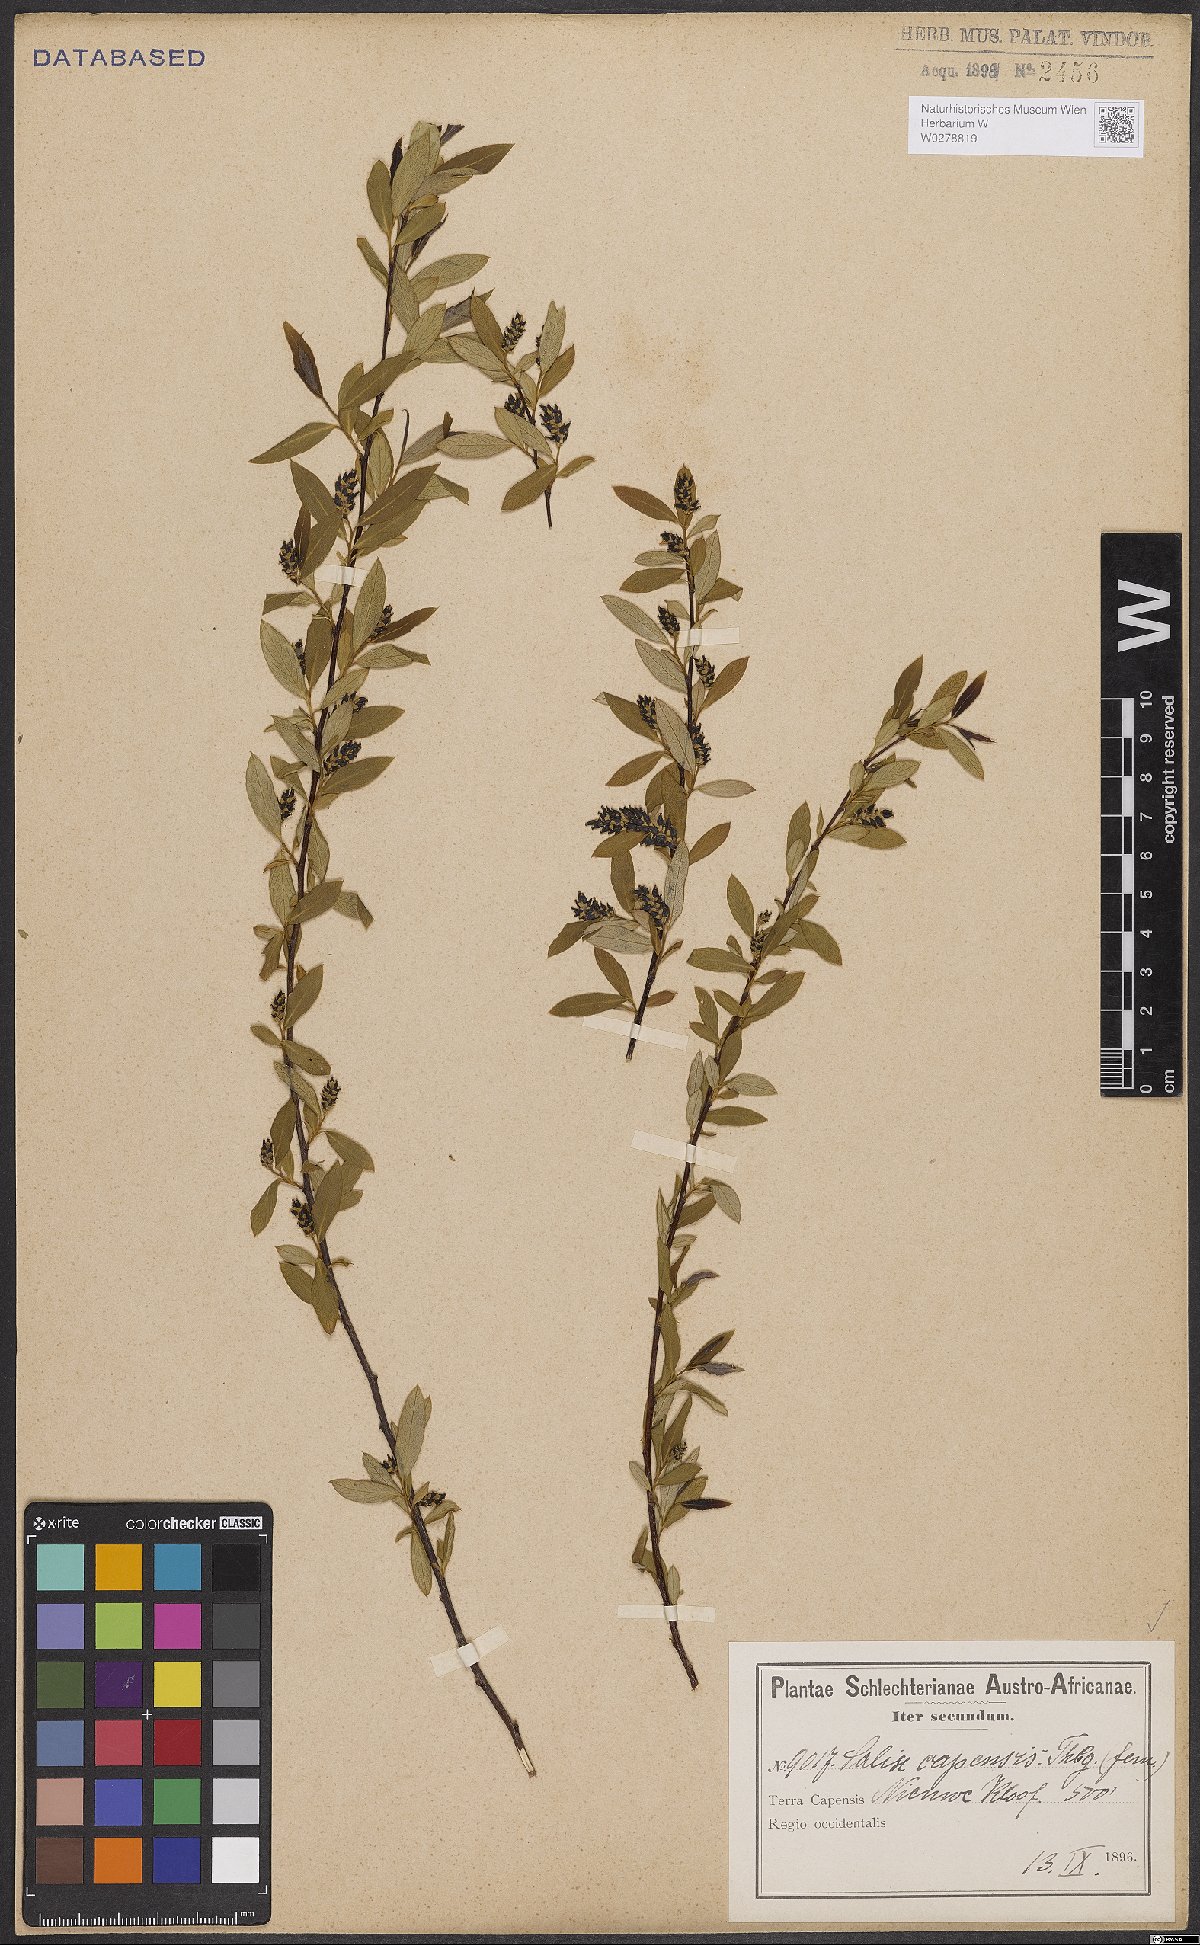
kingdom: Plantae
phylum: Tracheophyta
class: Magnoliopsida
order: Malpighiales
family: Salicaceae
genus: Salix
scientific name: Salix mucronata
